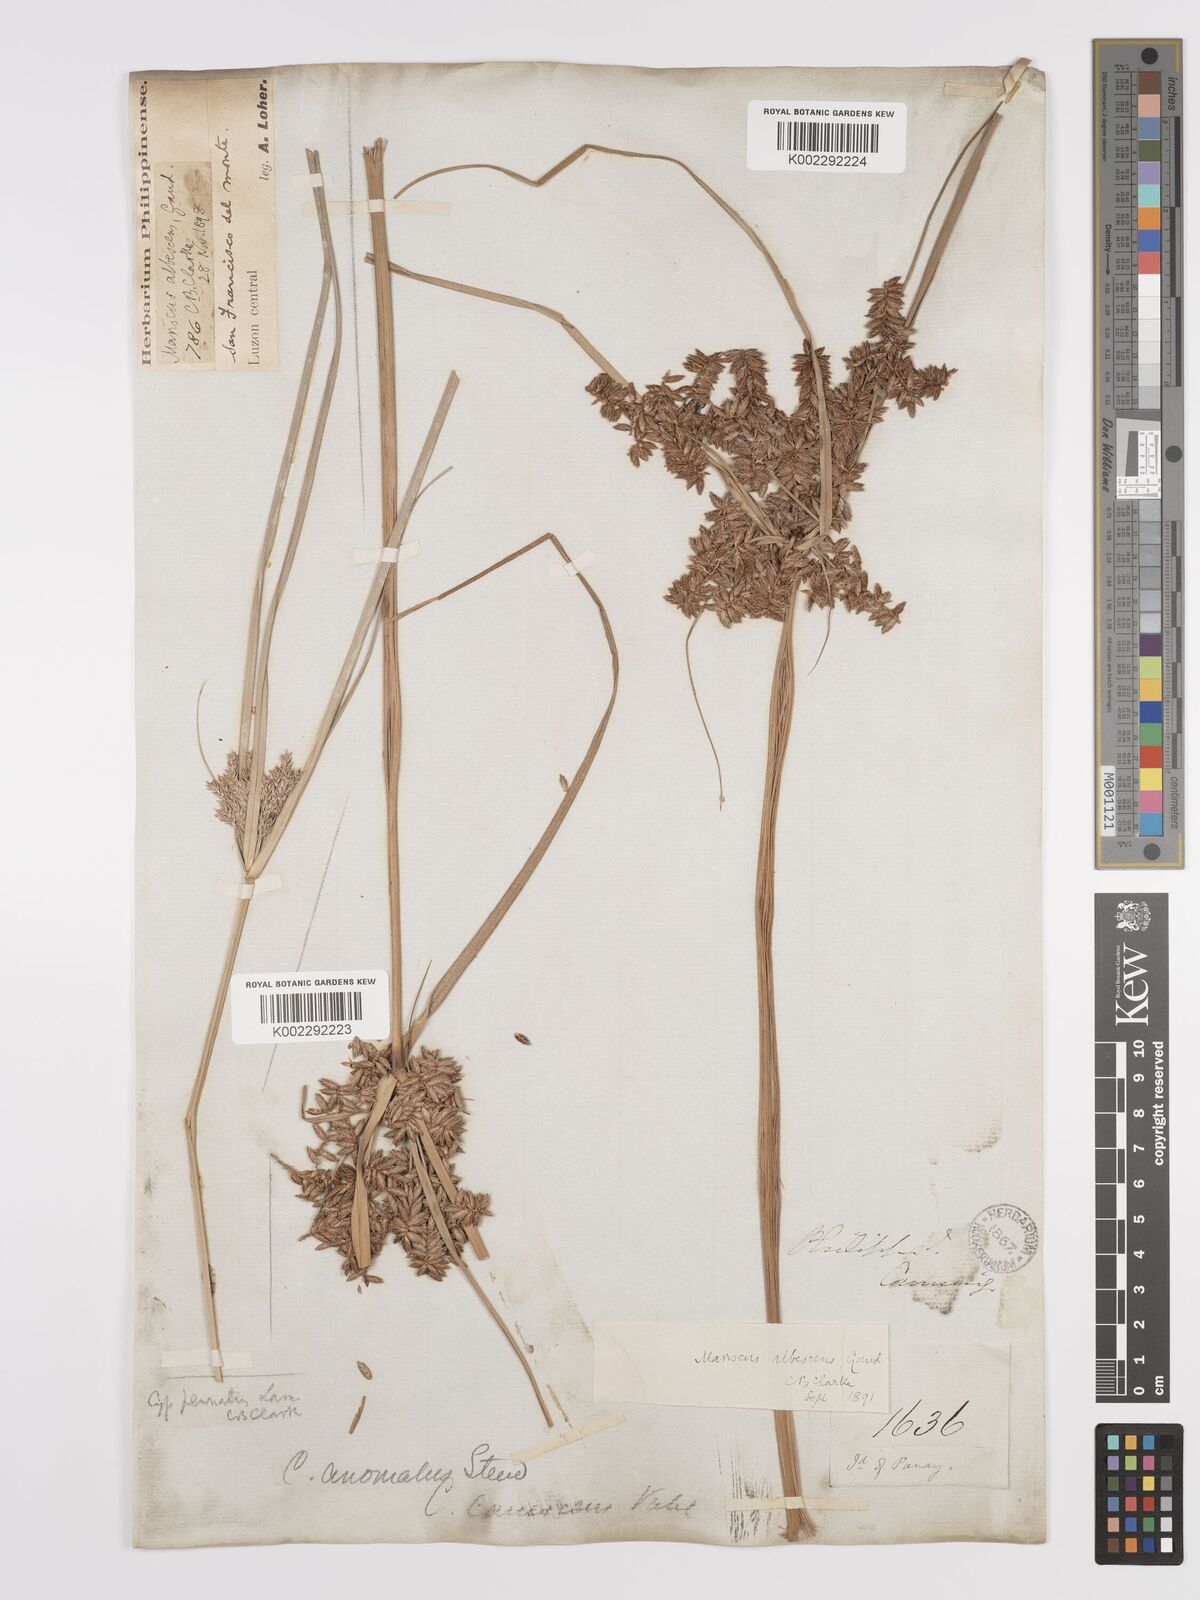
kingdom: Plantae
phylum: Tracheophyta
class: Liliopsida
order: Poales
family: Cyperaceae
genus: Cyperus
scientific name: Cyperus javanicus
